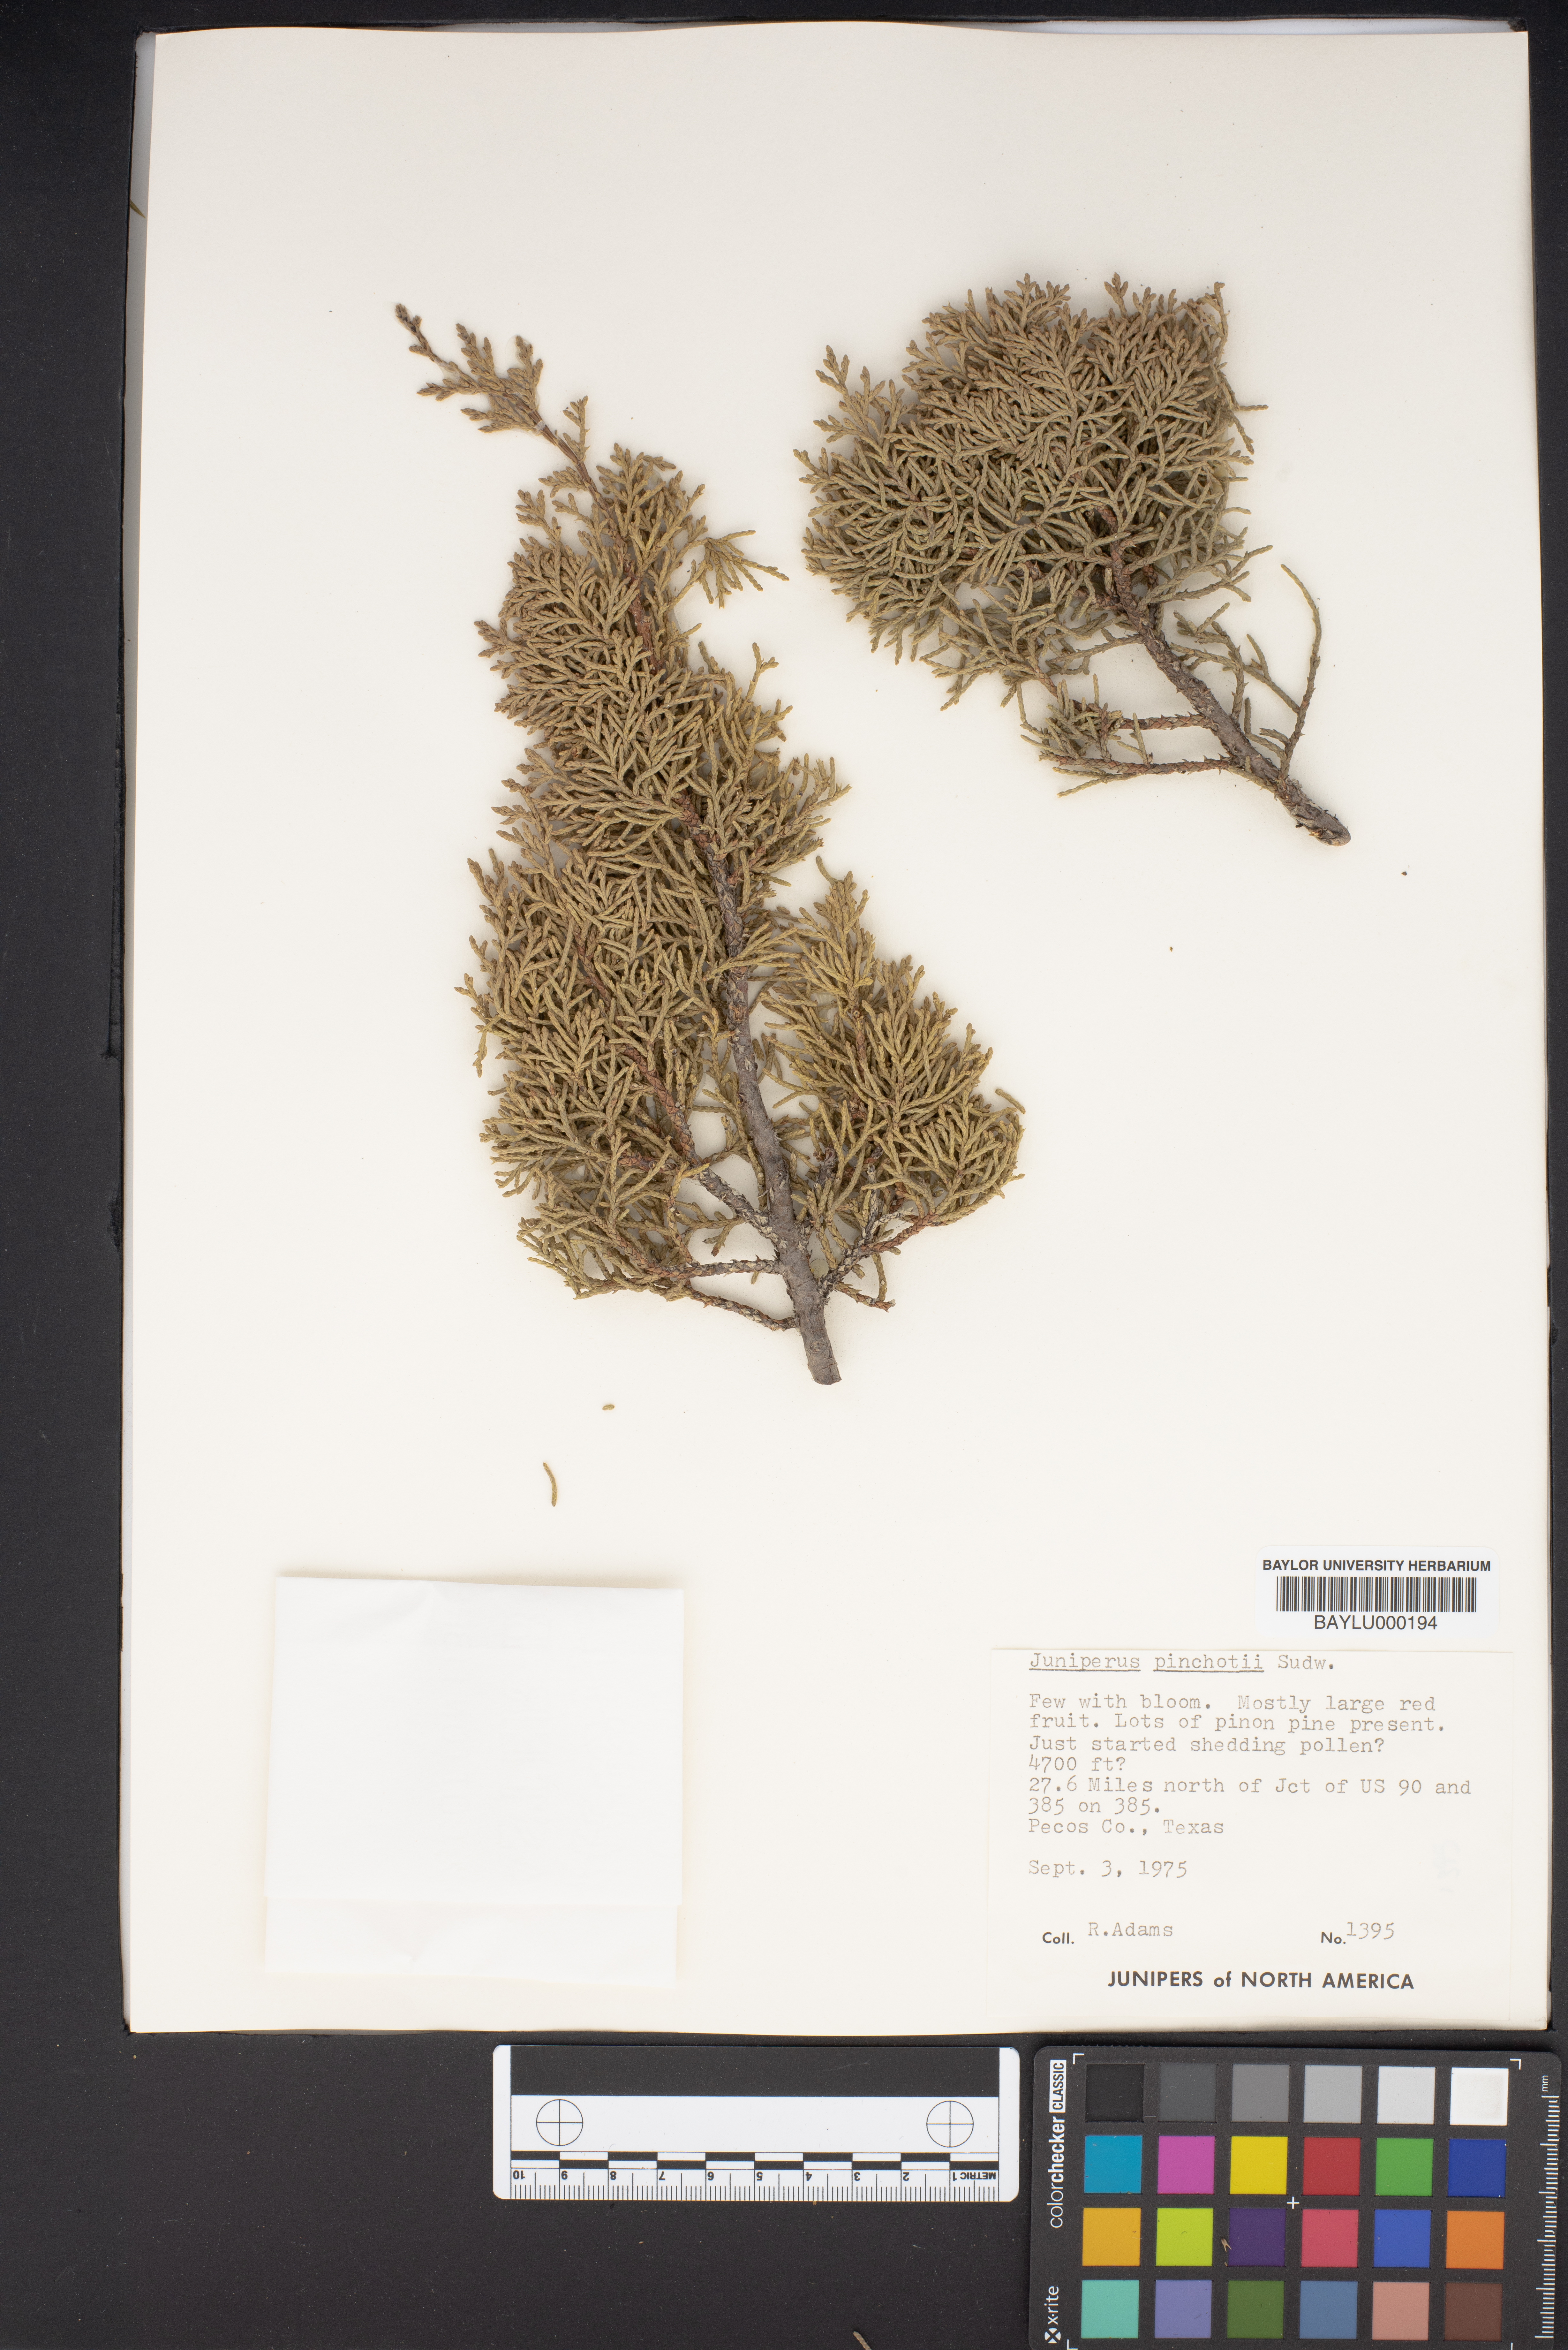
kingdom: Plantae
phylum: Tracheophyta
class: Pinopsida
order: Pinales
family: Cupressaceae
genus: Juniperus
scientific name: Juniperus pinchotii
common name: Pinchot juniper
